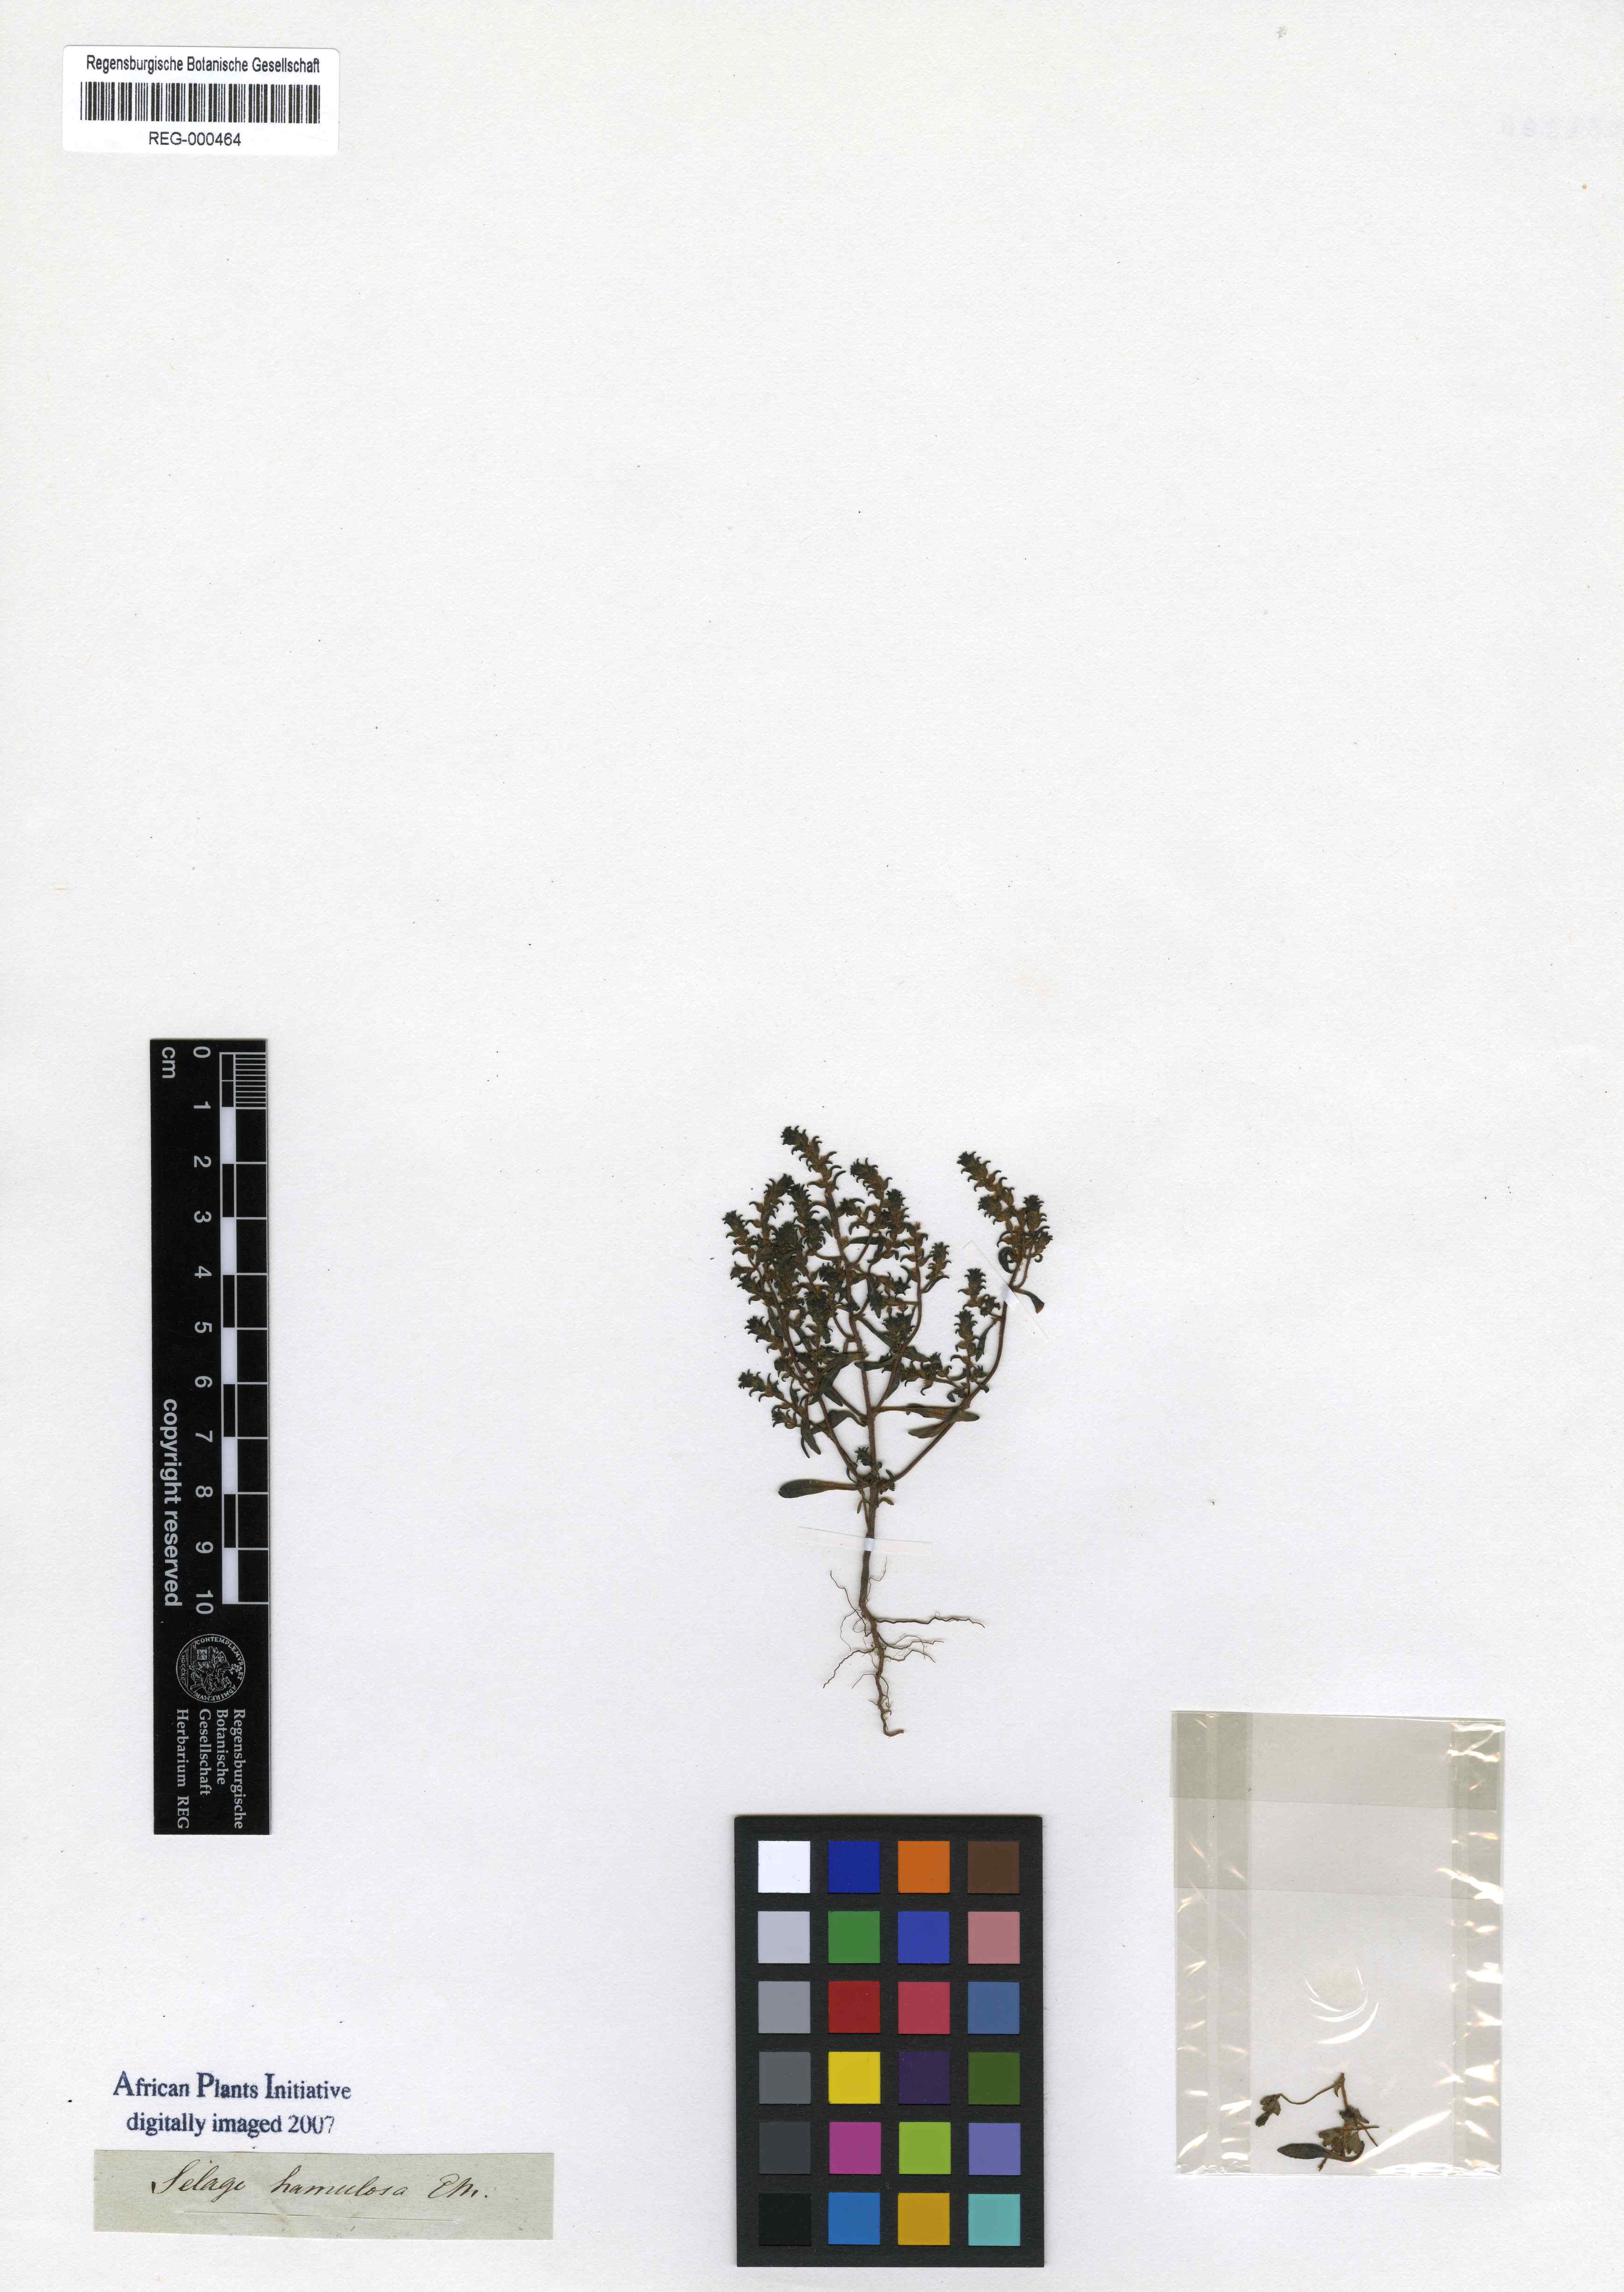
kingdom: Plantae
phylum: Tracheophyta
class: Magnoliopsida
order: Lamiales
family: Scrophulariaceae
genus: Cromidon
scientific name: Cromidon hamulosum
